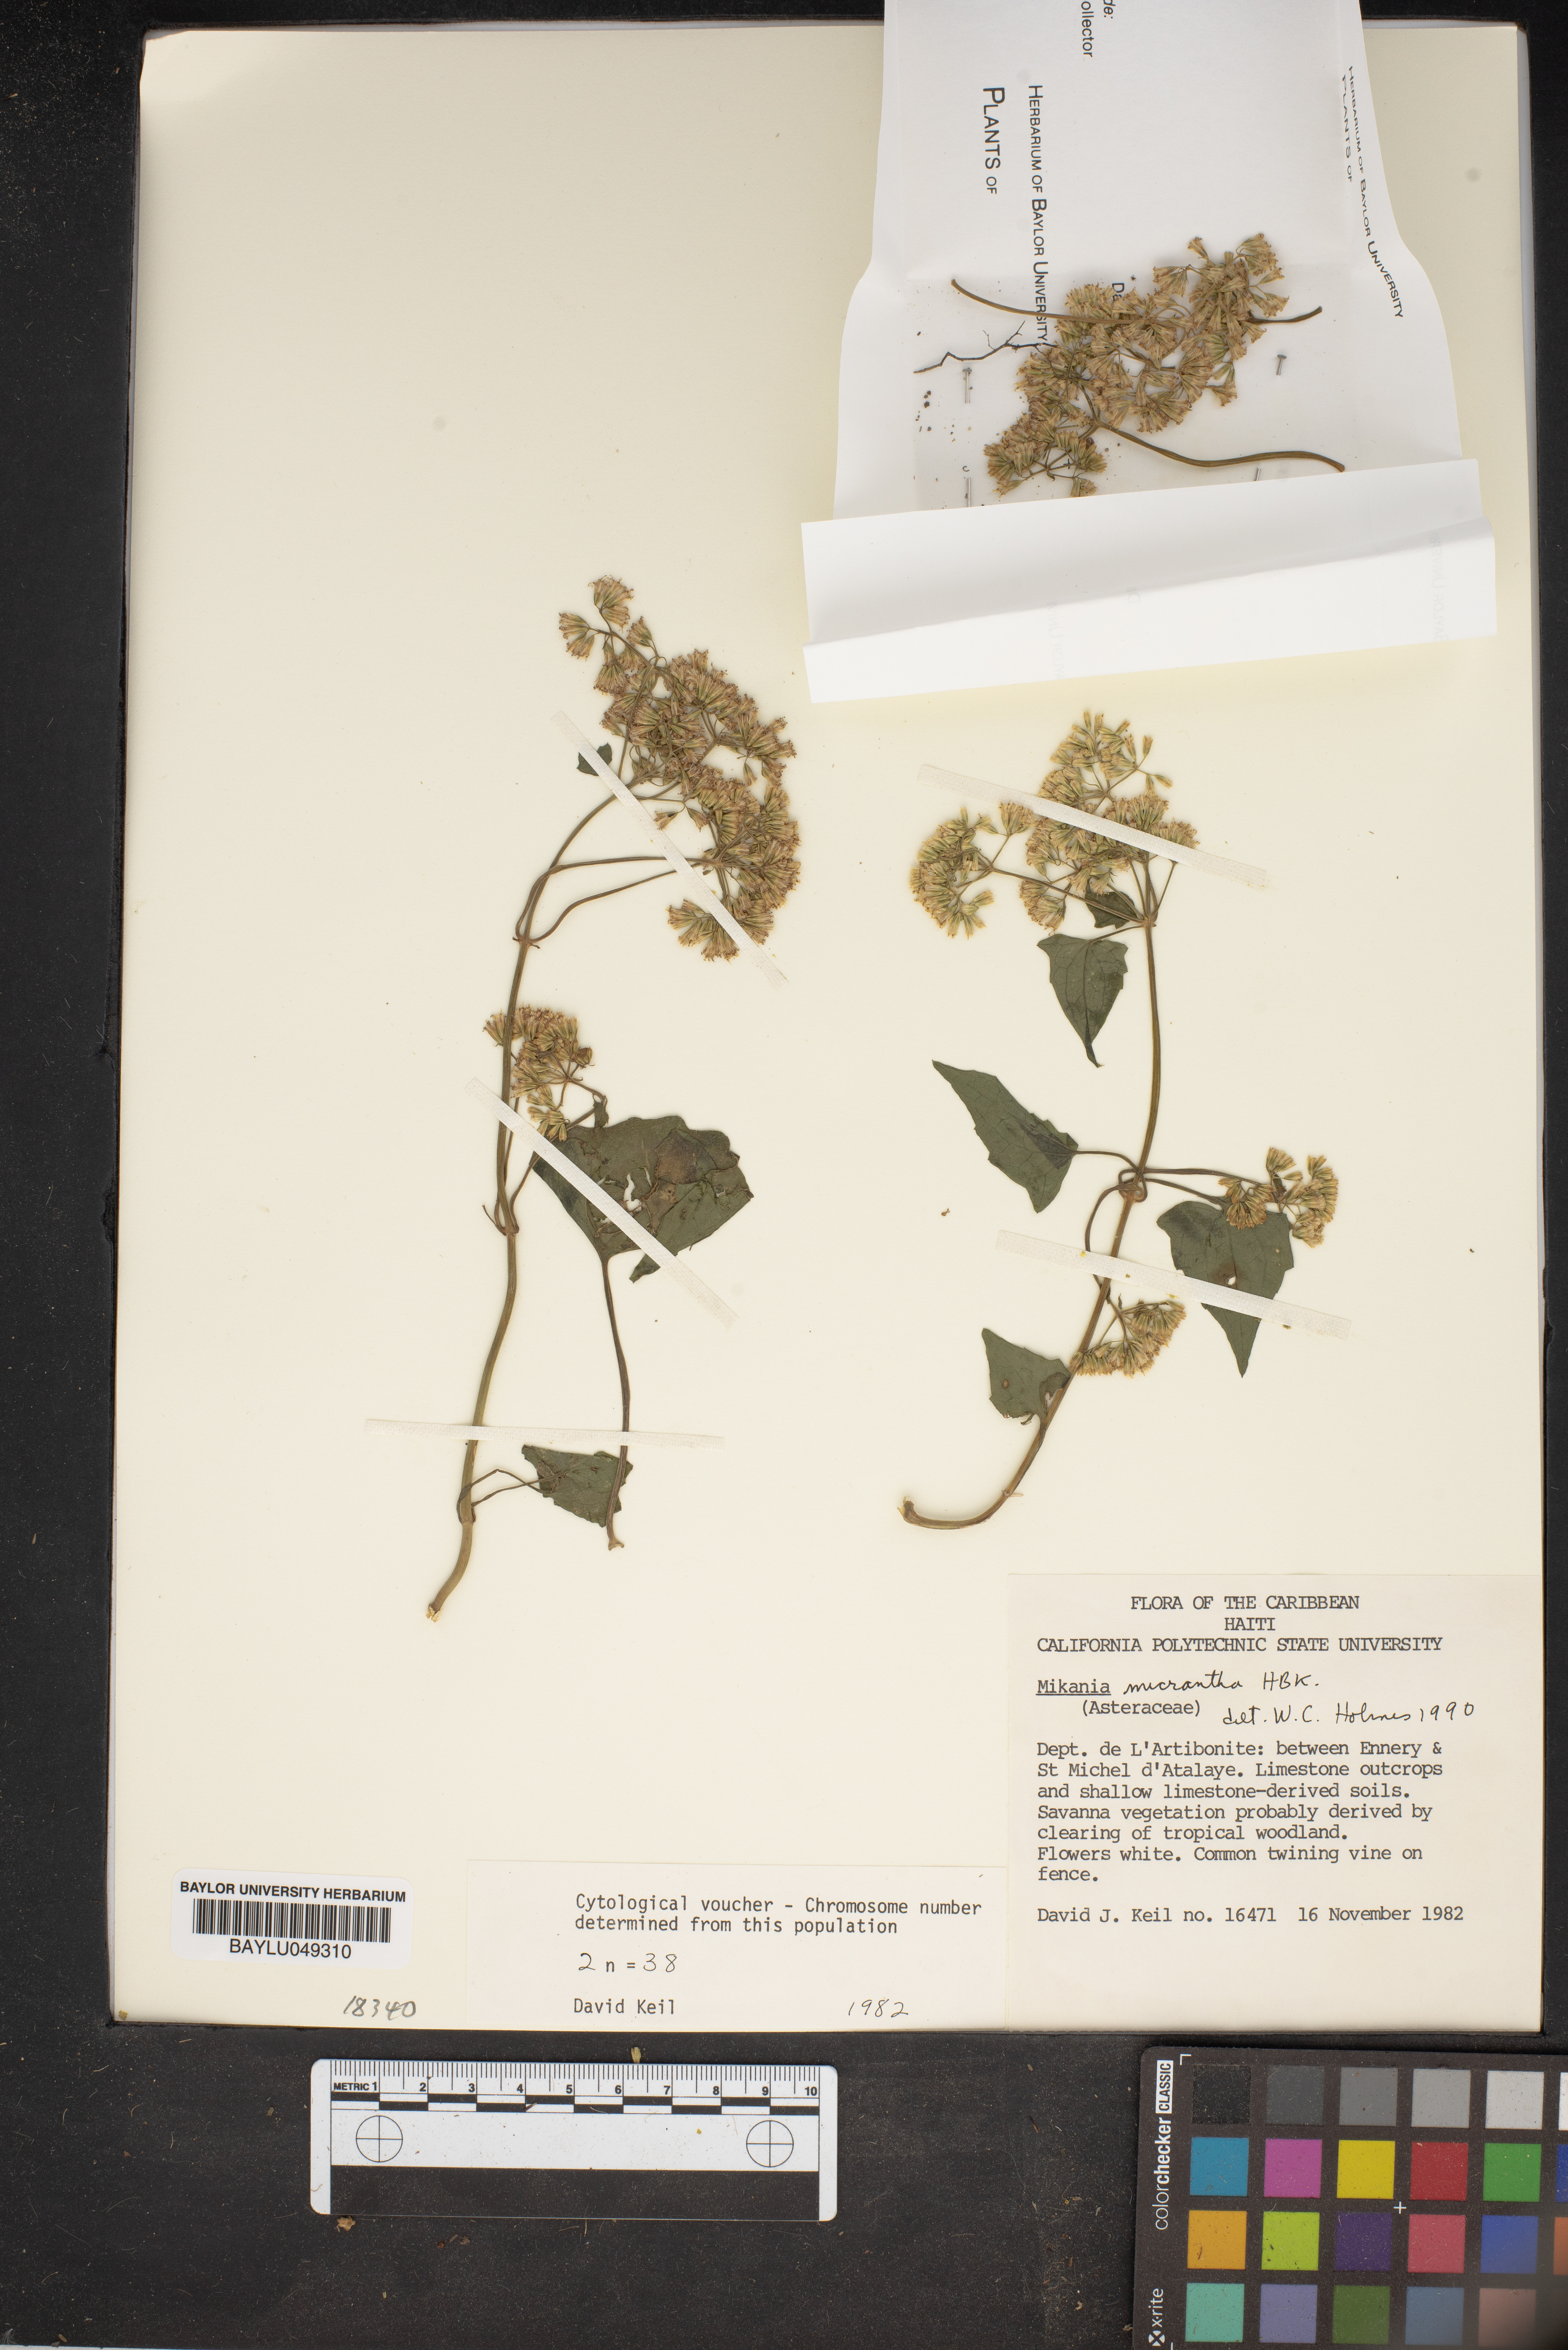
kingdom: Plantae
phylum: Tracheophyta
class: Magnoliopsida
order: Asterales
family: Asteraceae
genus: Mikania
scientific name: Mikania micrantha
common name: Mile-a-minute
